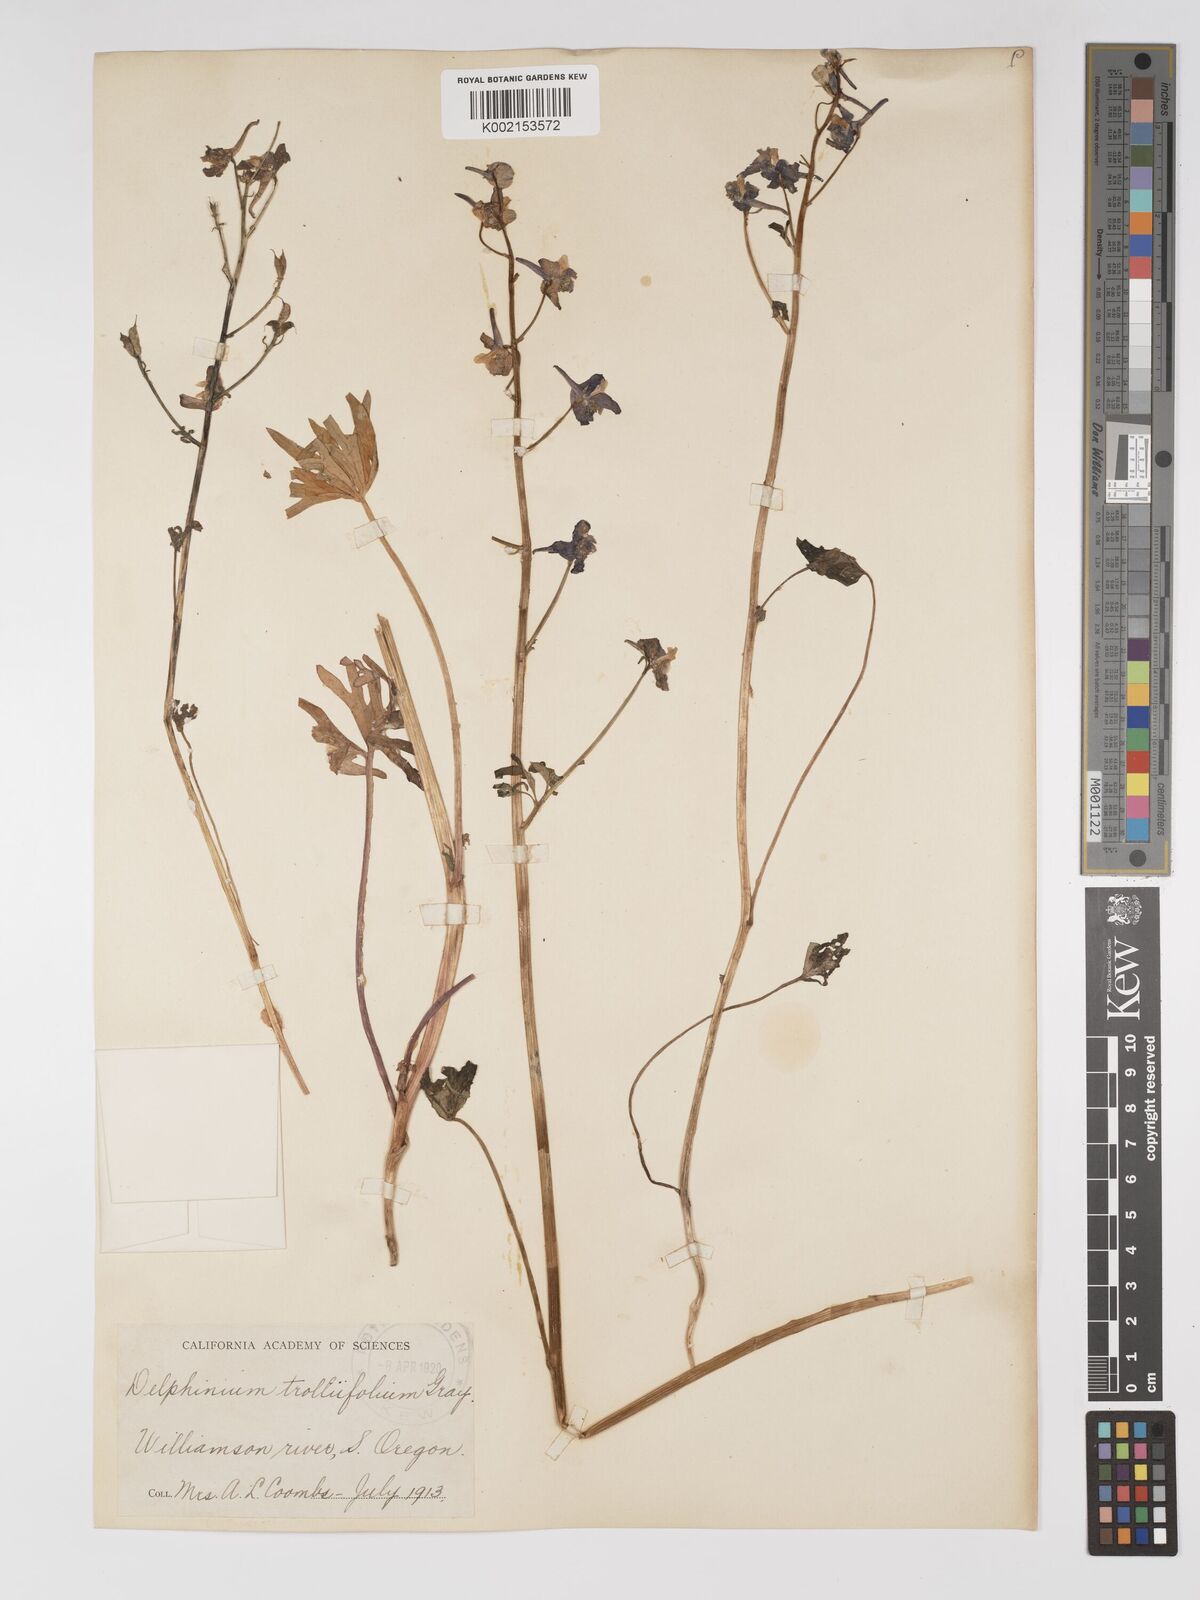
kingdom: Plantae
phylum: Tracheophyta
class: Magnoliopsida
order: Ranunculales
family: Ranunculaceae
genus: Delphinium
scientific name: Delphinium trolliifolium
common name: Cow-poison
